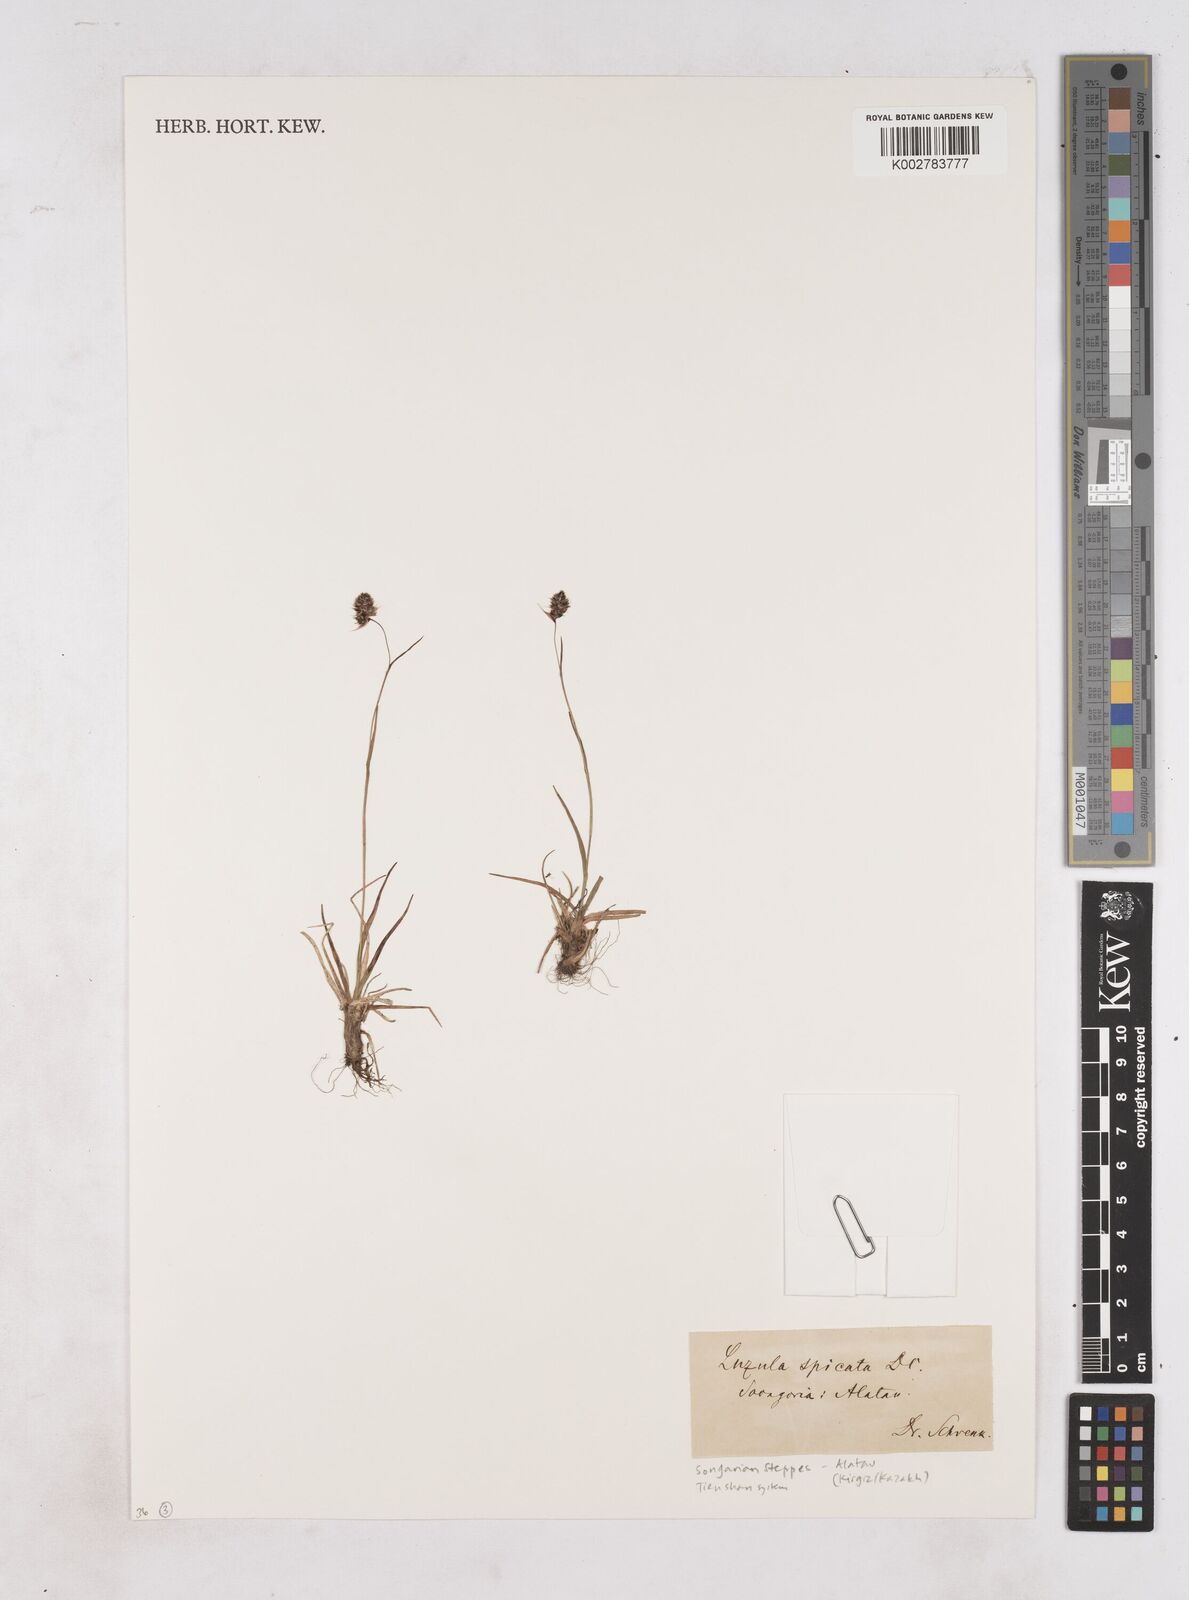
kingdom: Plantae
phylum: Tracheophyta
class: Liliopsida
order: Poales
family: Juncaceae
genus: Luzula
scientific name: Luzula spicata
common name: Spiked wood-rush
